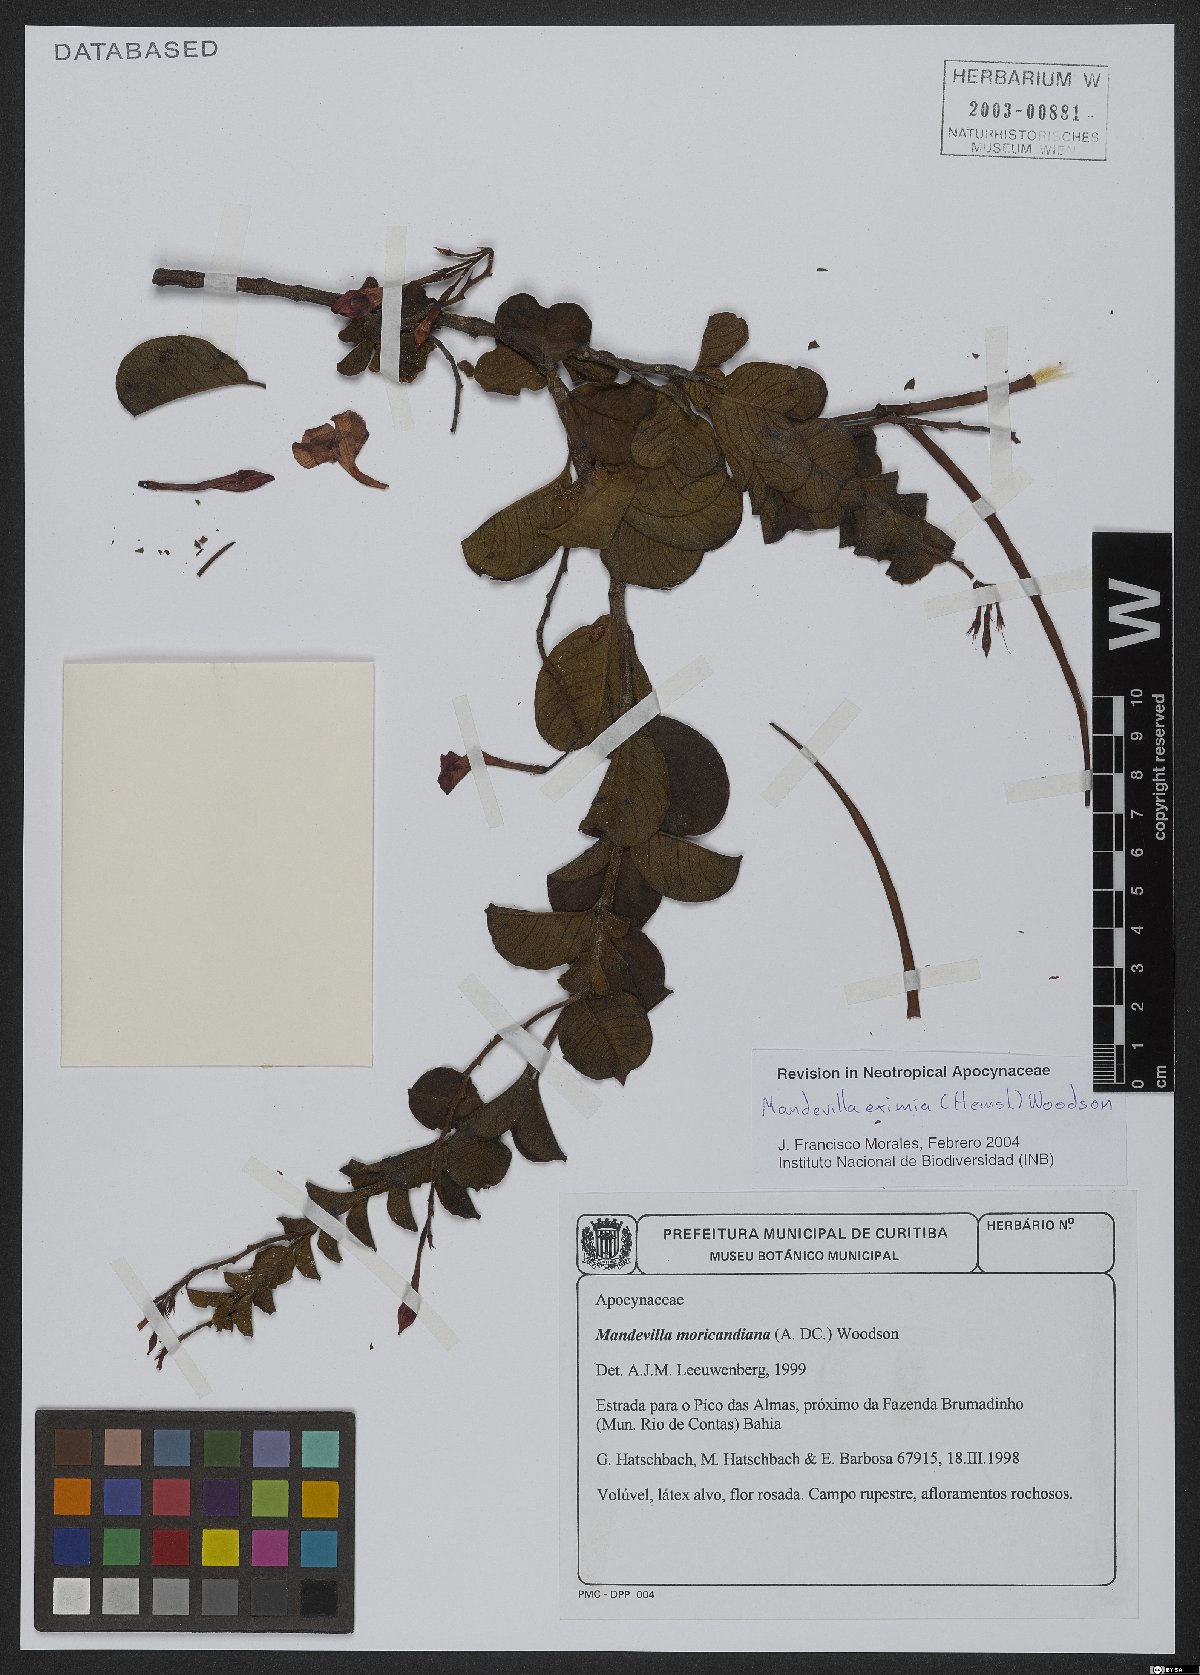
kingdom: Plantae
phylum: Tracheophyta
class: Magnoliopsida
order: Gentianales
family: Apocynaceae
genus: Mandevilla
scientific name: Mandevilla eximia
